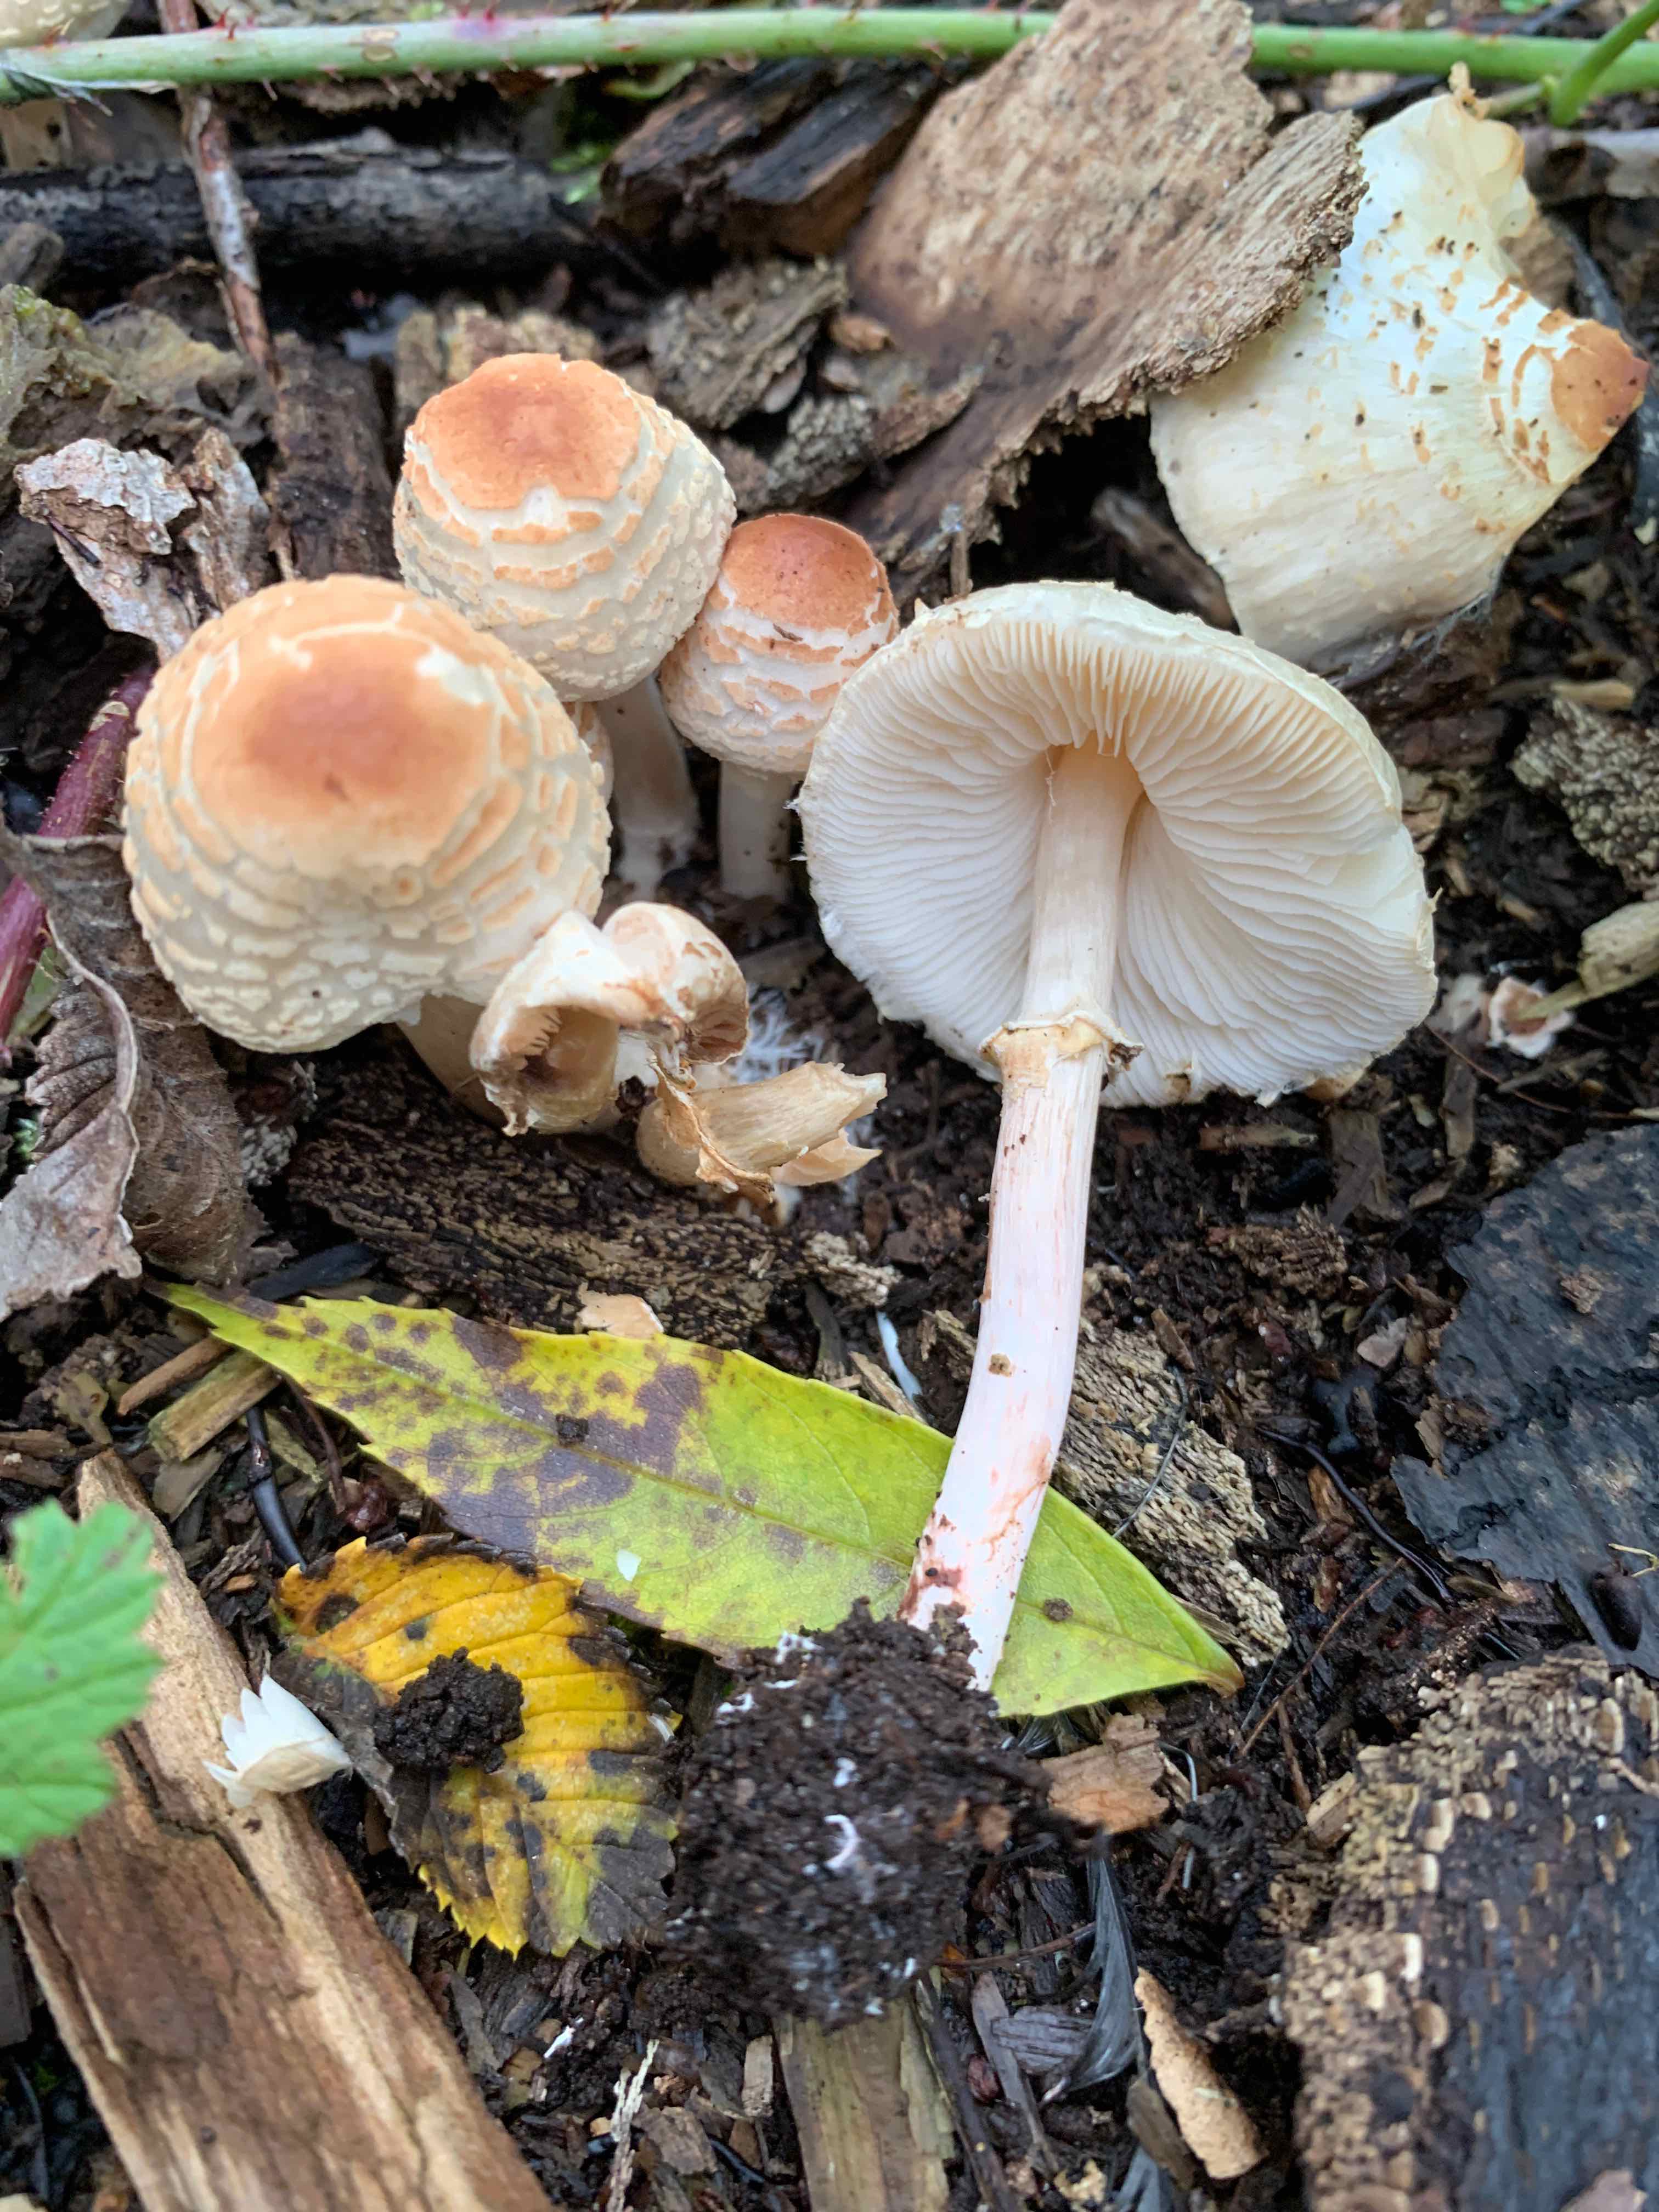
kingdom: Fungi
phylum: Basidiomycota
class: Agaricomycetes
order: Agaricales
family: Agaricaceae
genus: Lepiota
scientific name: Lepiota cristata
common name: stinkende parasolhat
